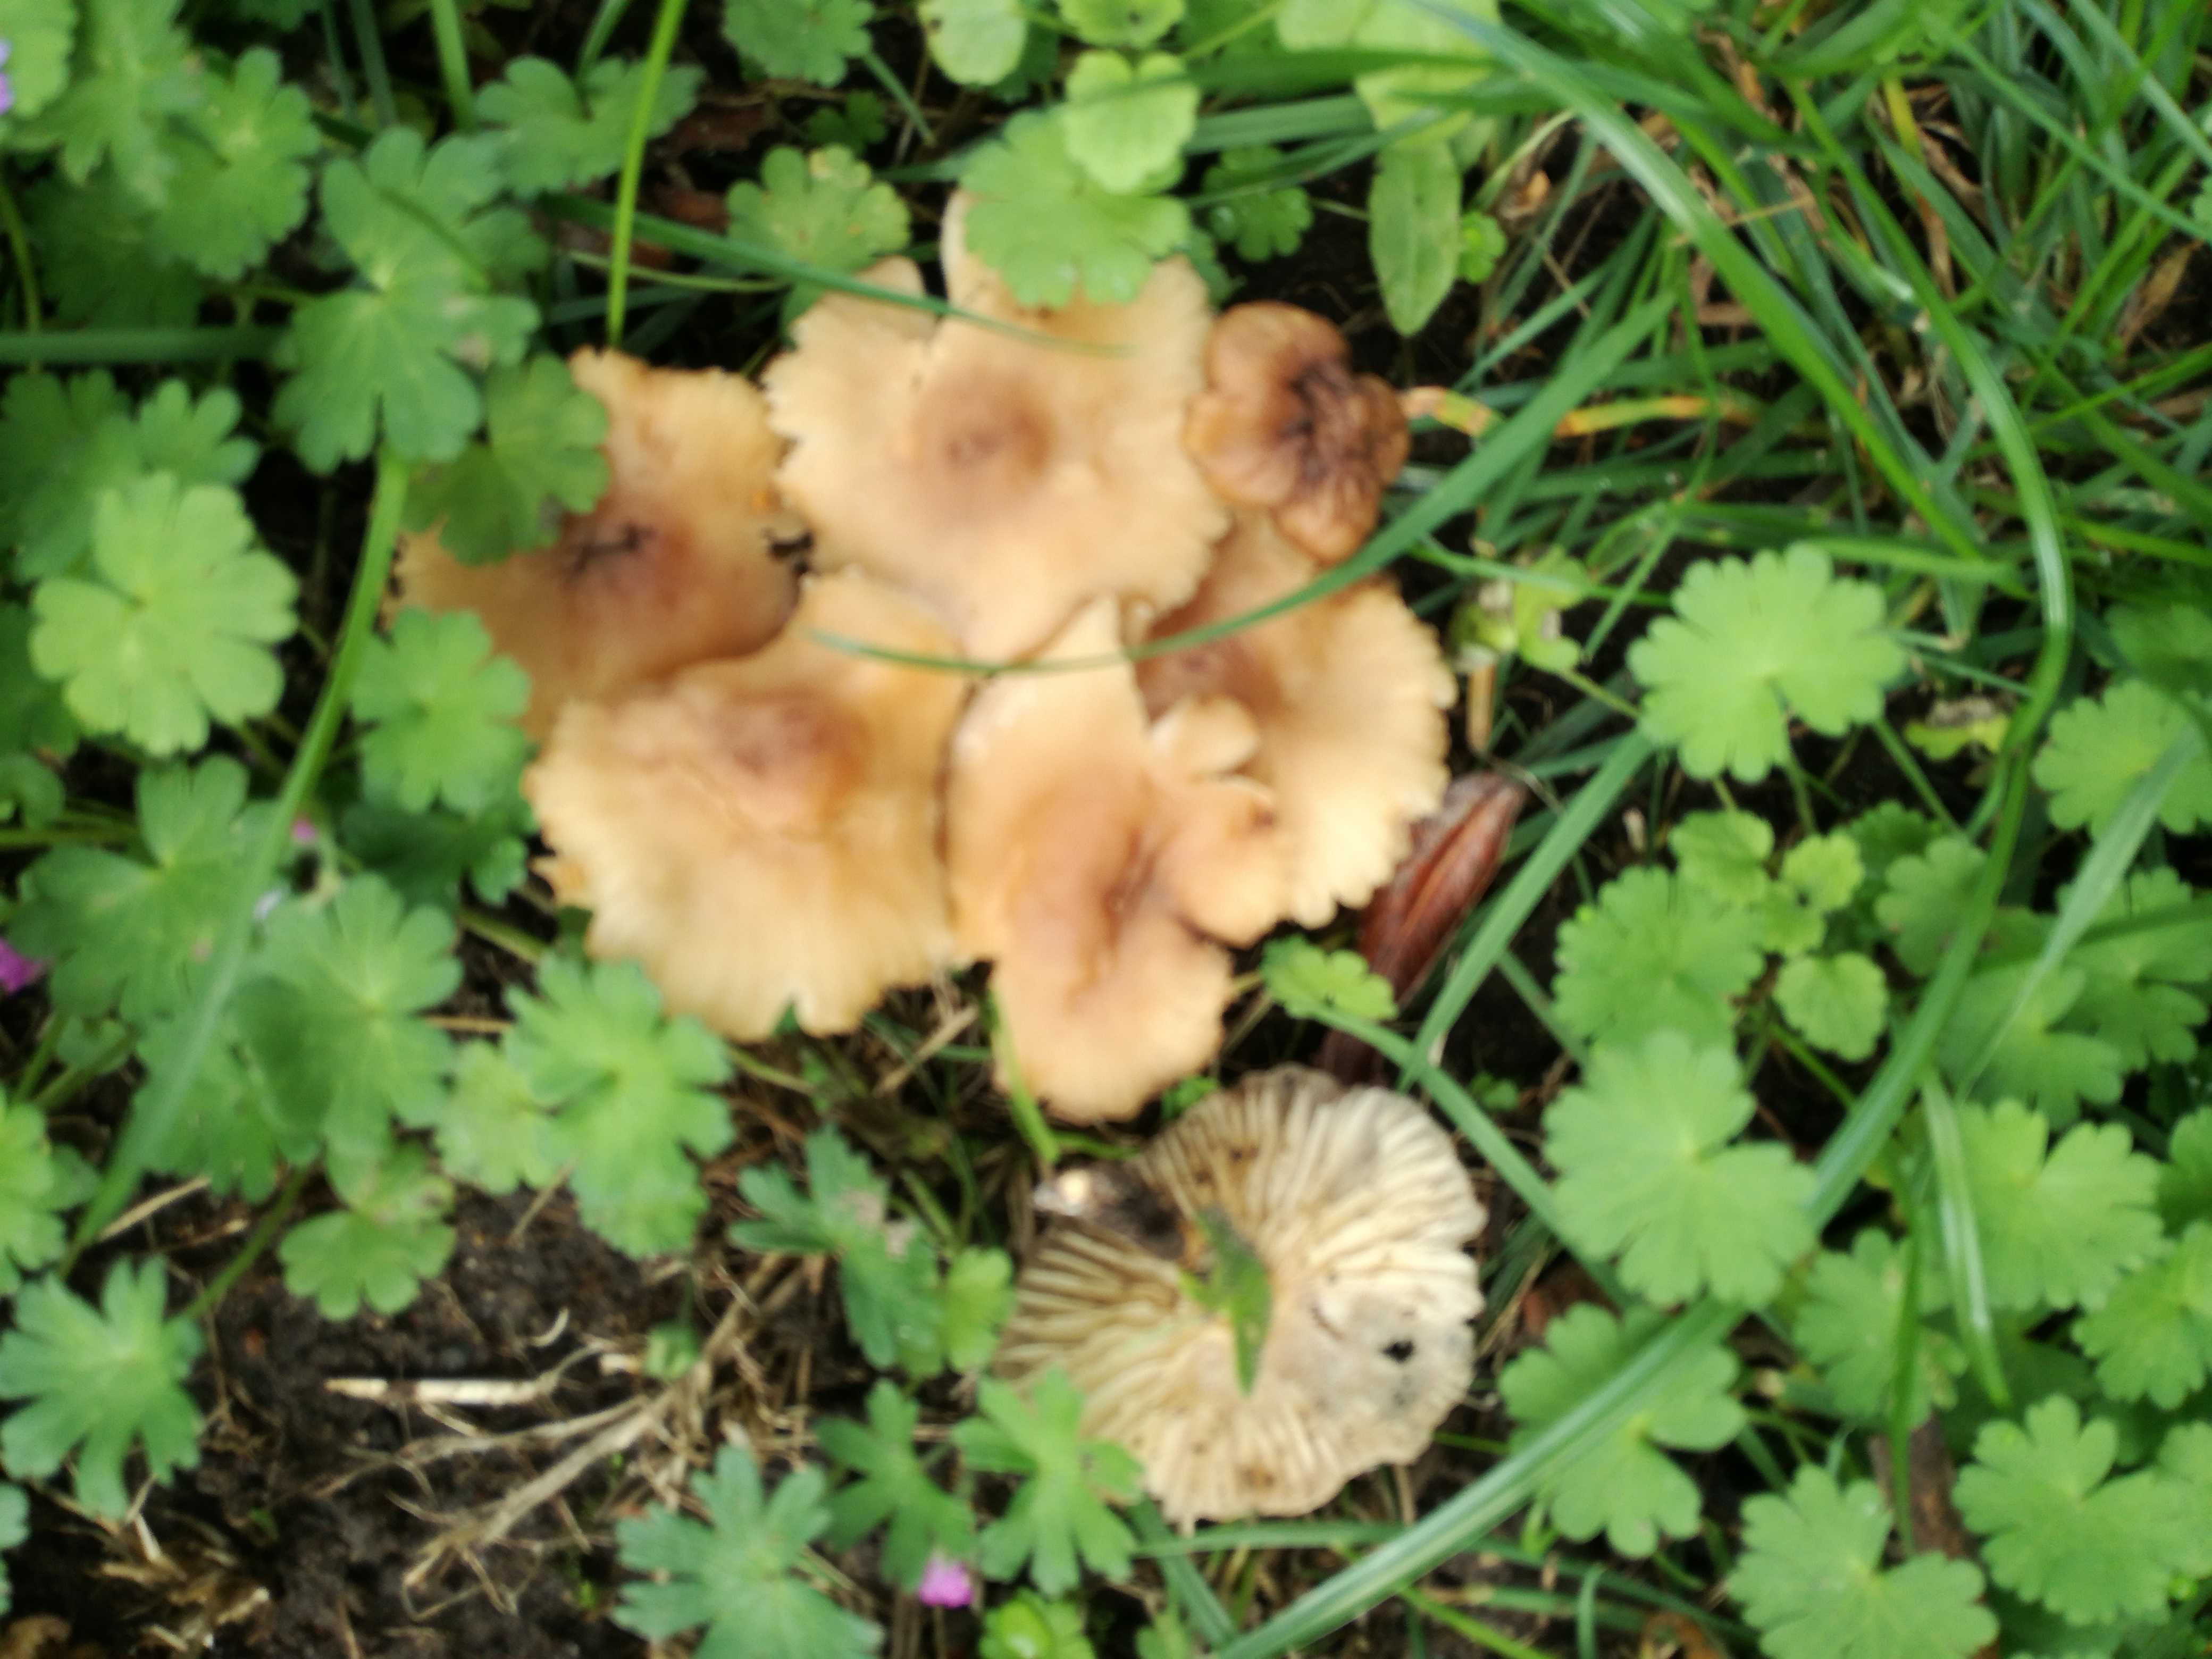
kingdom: Fungi
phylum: Basidiomycota
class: Agaricomycetes
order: Agaricales
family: Marasmiaceae
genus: Marasmius
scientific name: Marasmius oreades
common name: elledans-bruskhat
